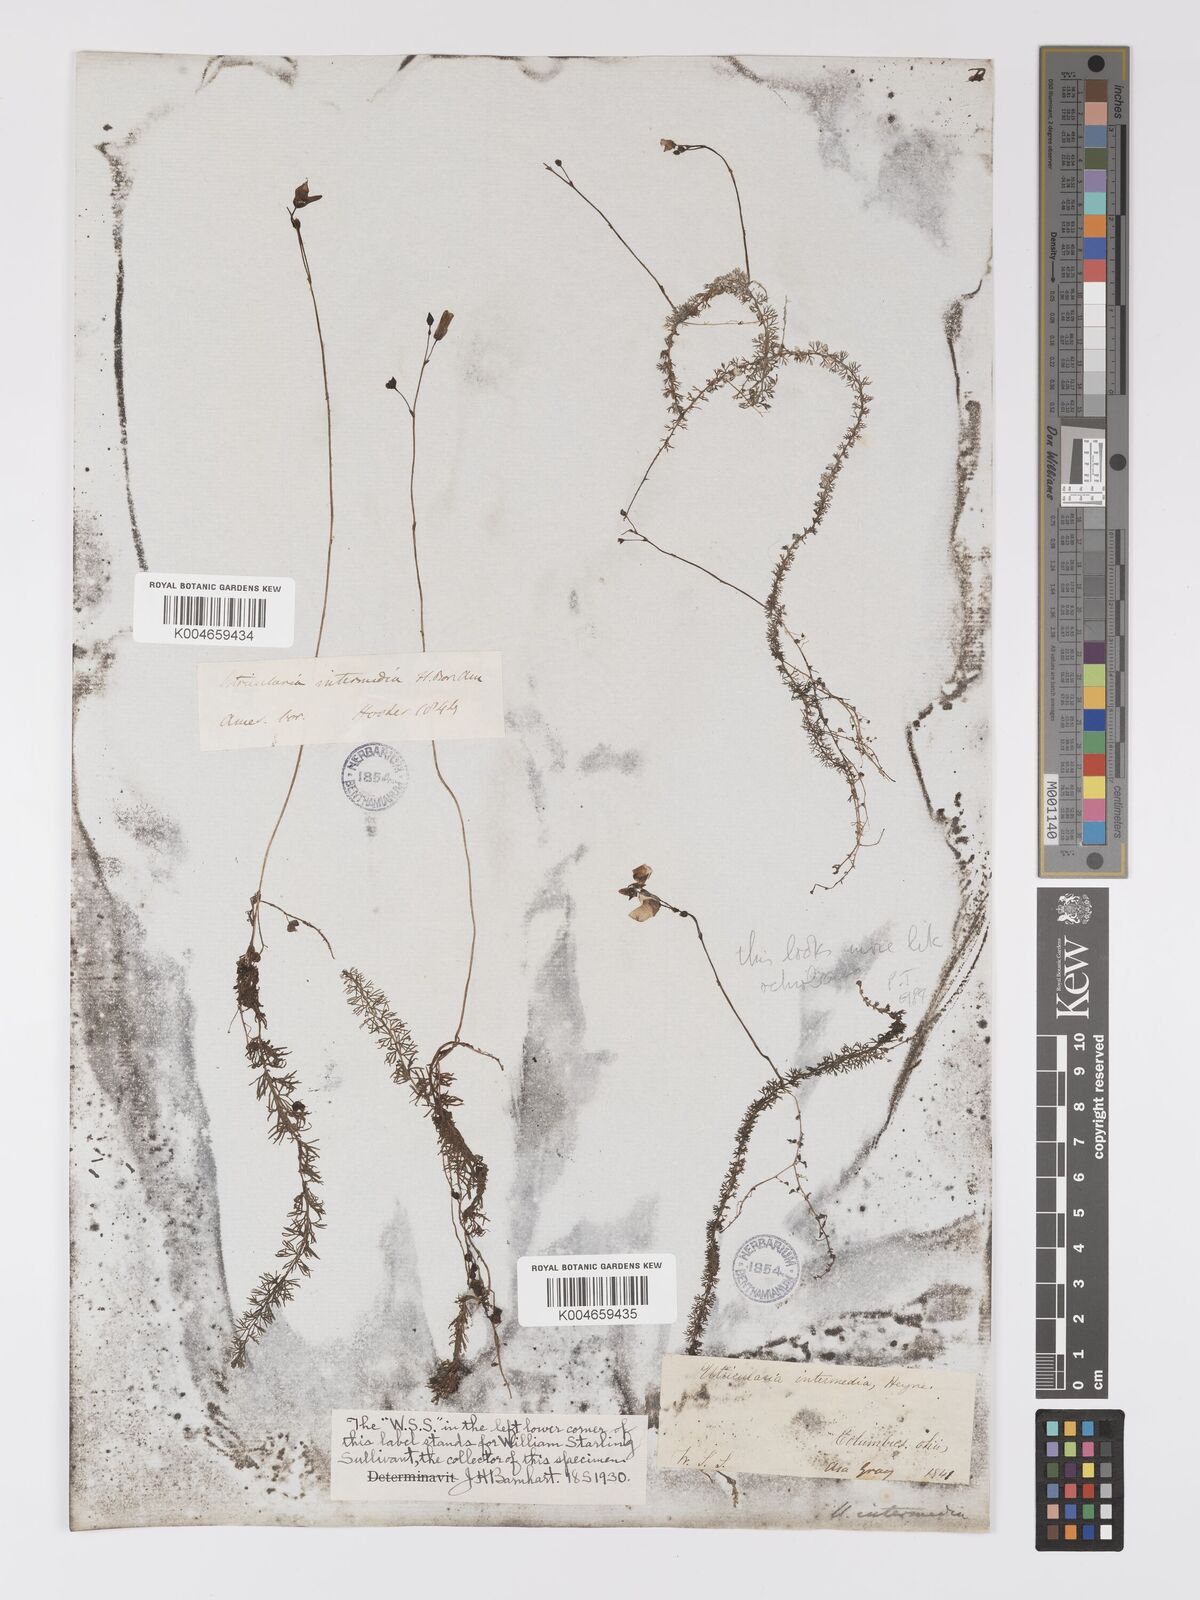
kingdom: Plantae
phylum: Tracheophyta
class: Magnoliopsida
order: Lamiales
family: Lentibulariaceae
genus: Utricularia
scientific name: Utricularia intermedia
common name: Intermediate bladderwort
